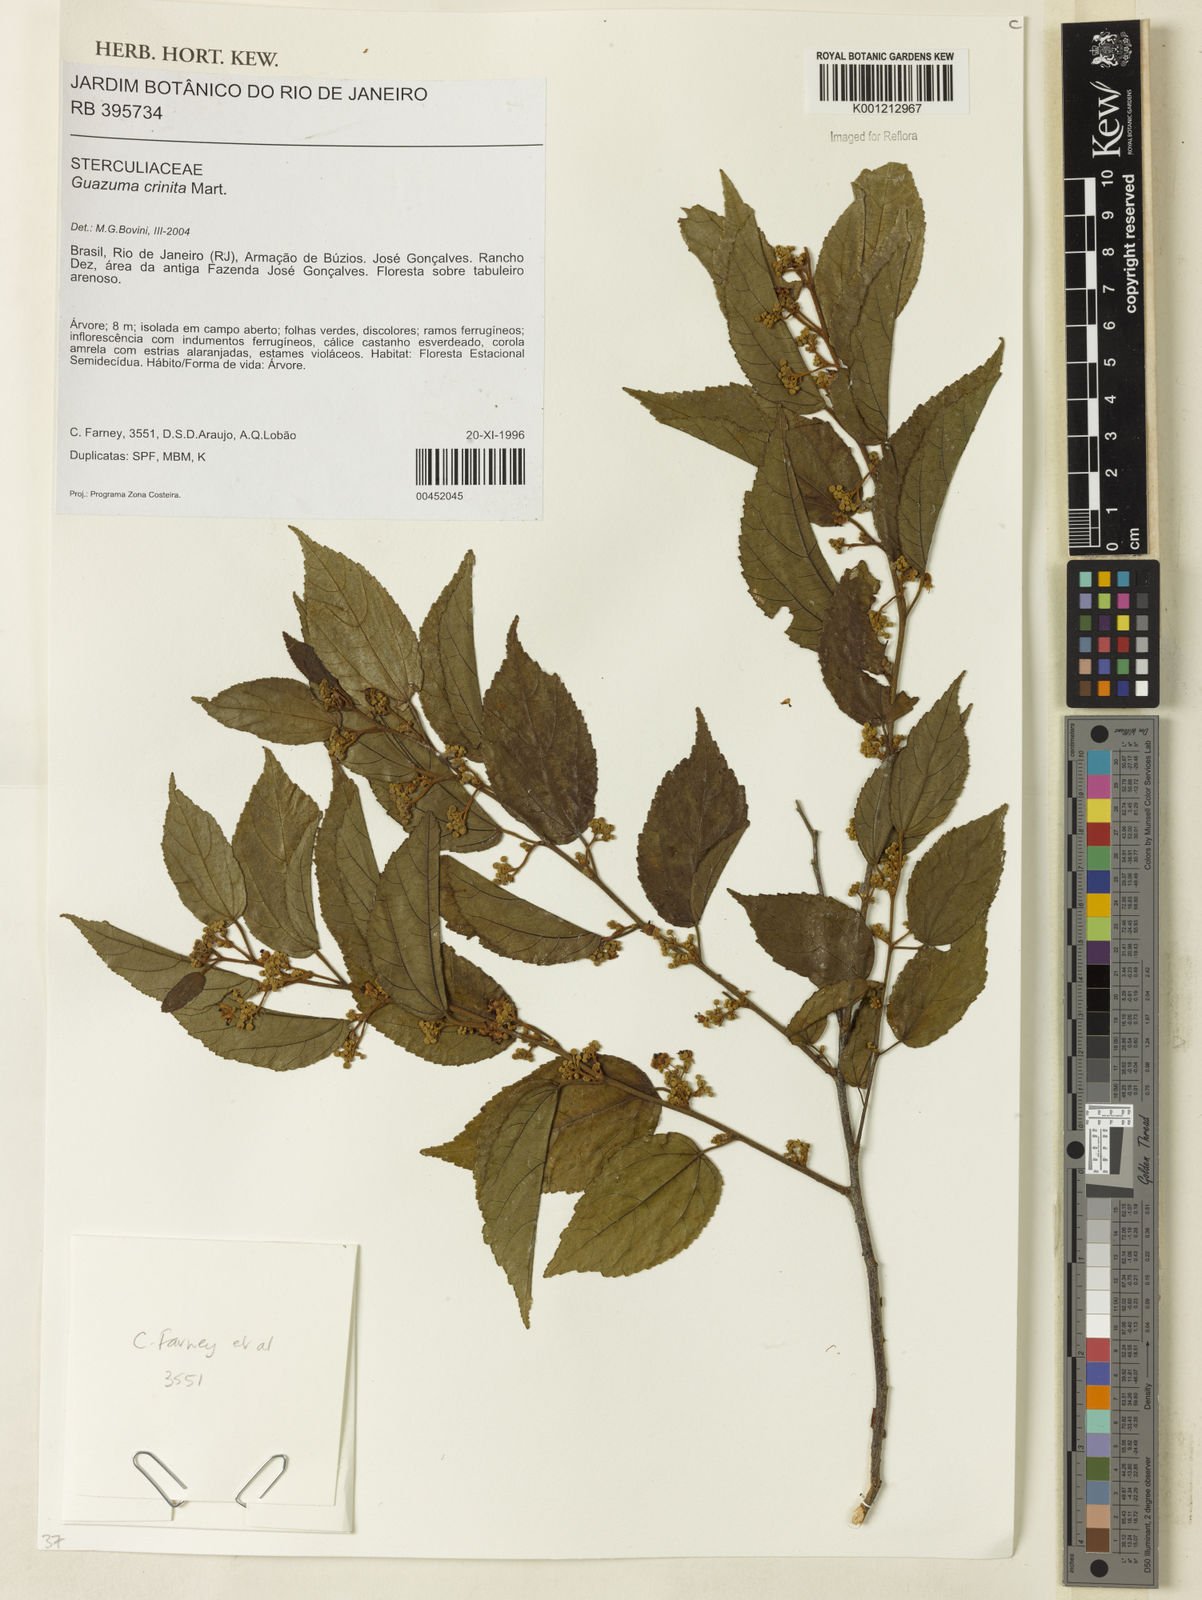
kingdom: Plantae
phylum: Tracheophyta
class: Magnoliopsida
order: Malvales
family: Malvaceae
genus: Guazuma
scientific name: Guazuma crinita
